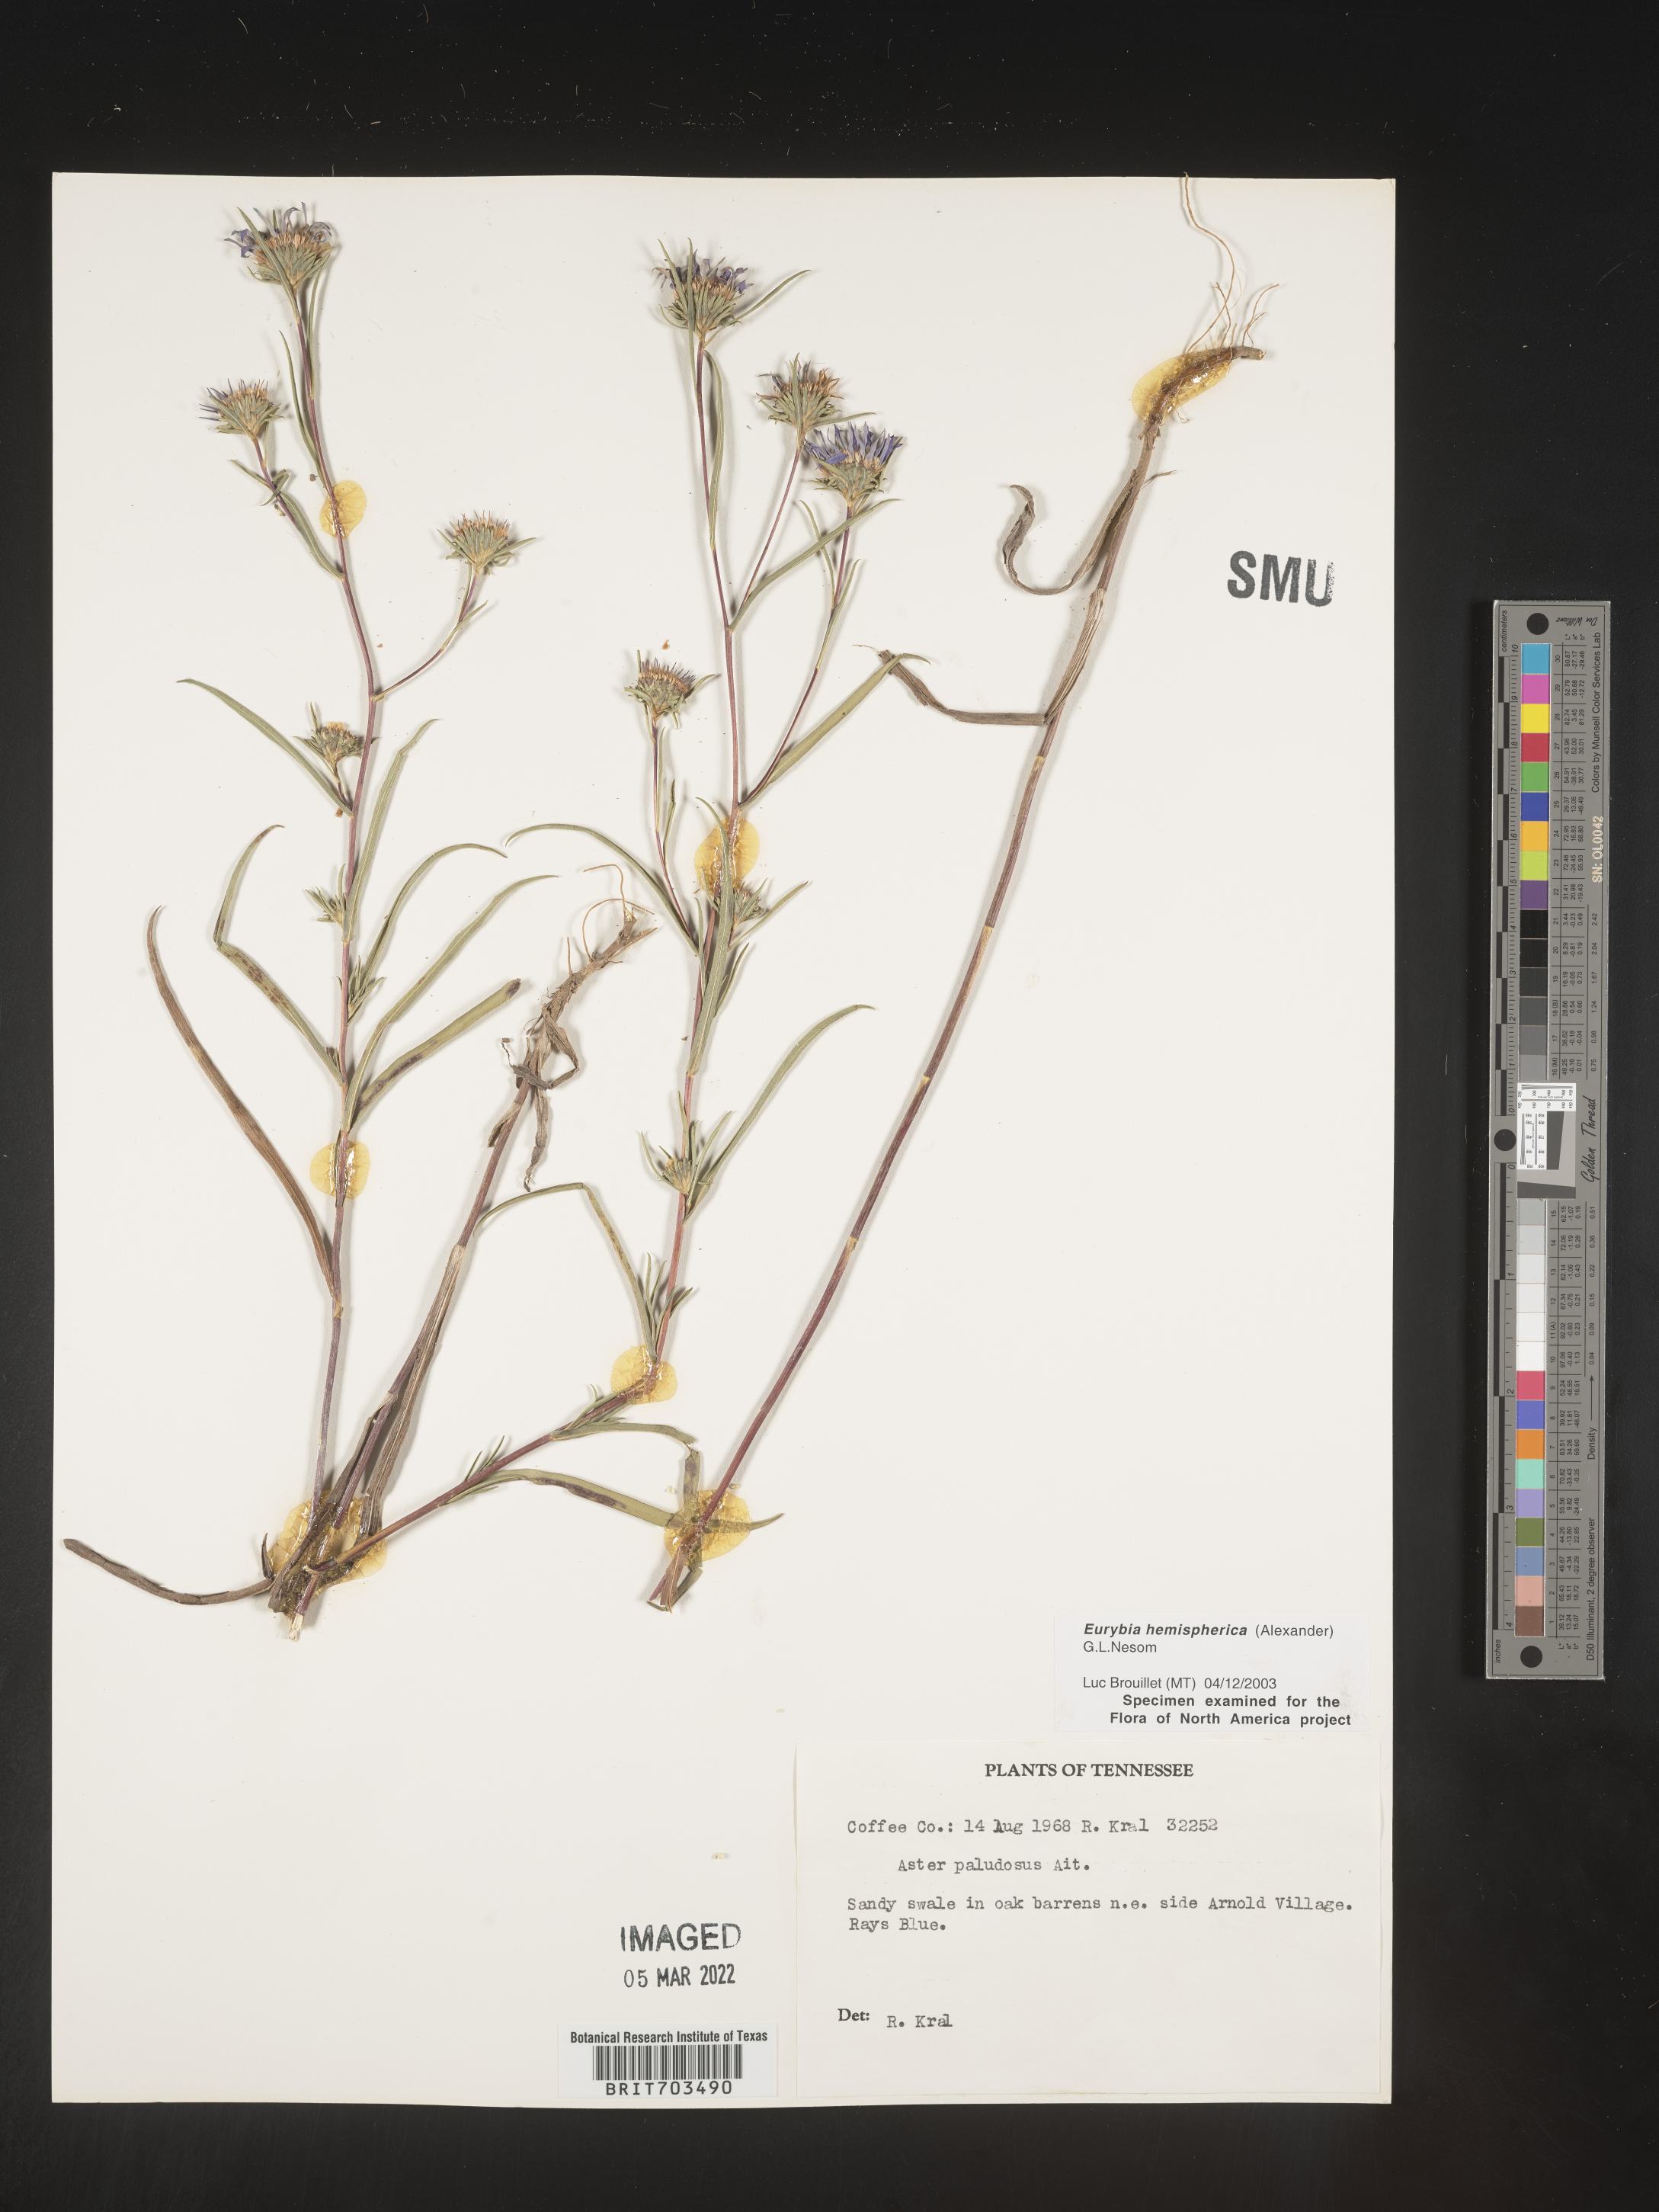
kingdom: Plantae
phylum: Tracheophyta
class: Magnoliopsida
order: Asterales
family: Asteraceae
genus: Eurybia
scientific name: Eurybia hemispherica
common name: Showy aster
